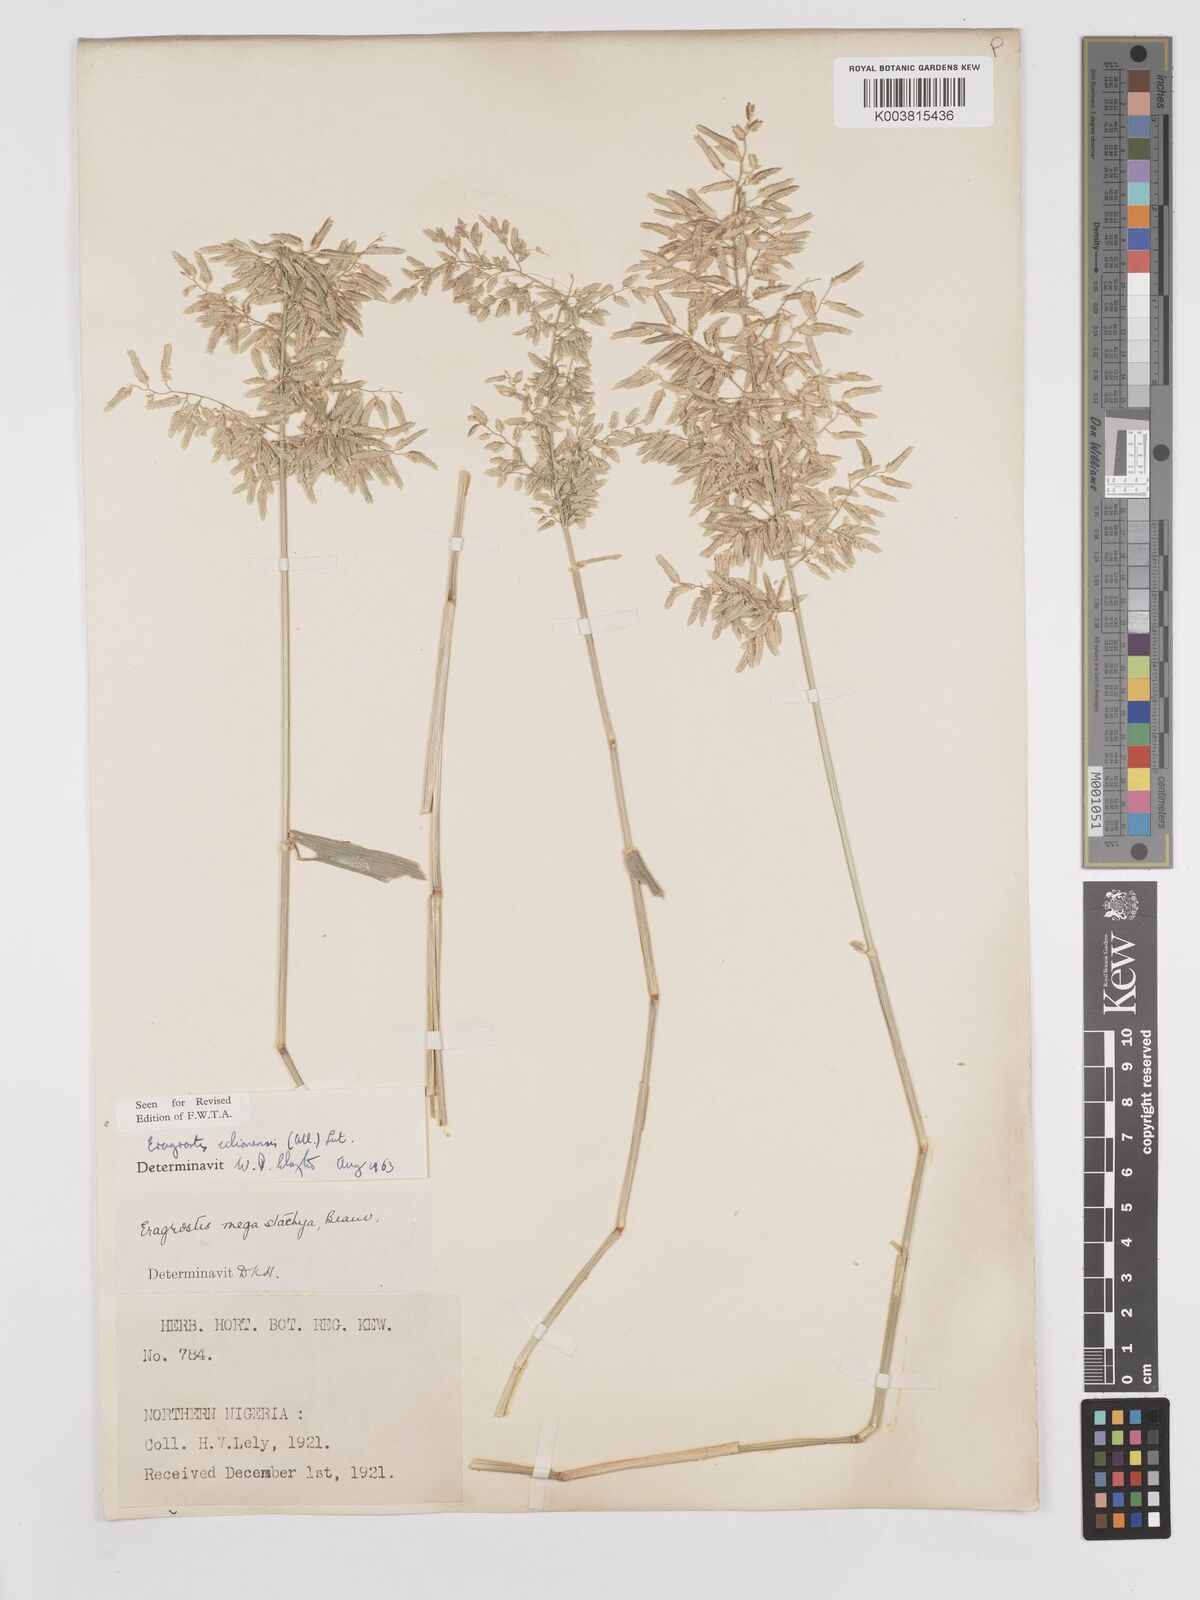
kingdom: Plantae
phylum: Tracheophyta
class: Liliopsida
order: Poales
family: Poaceae
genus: Eragrostis
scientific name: Eragrostis cilianensis
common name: Stinkgrass
